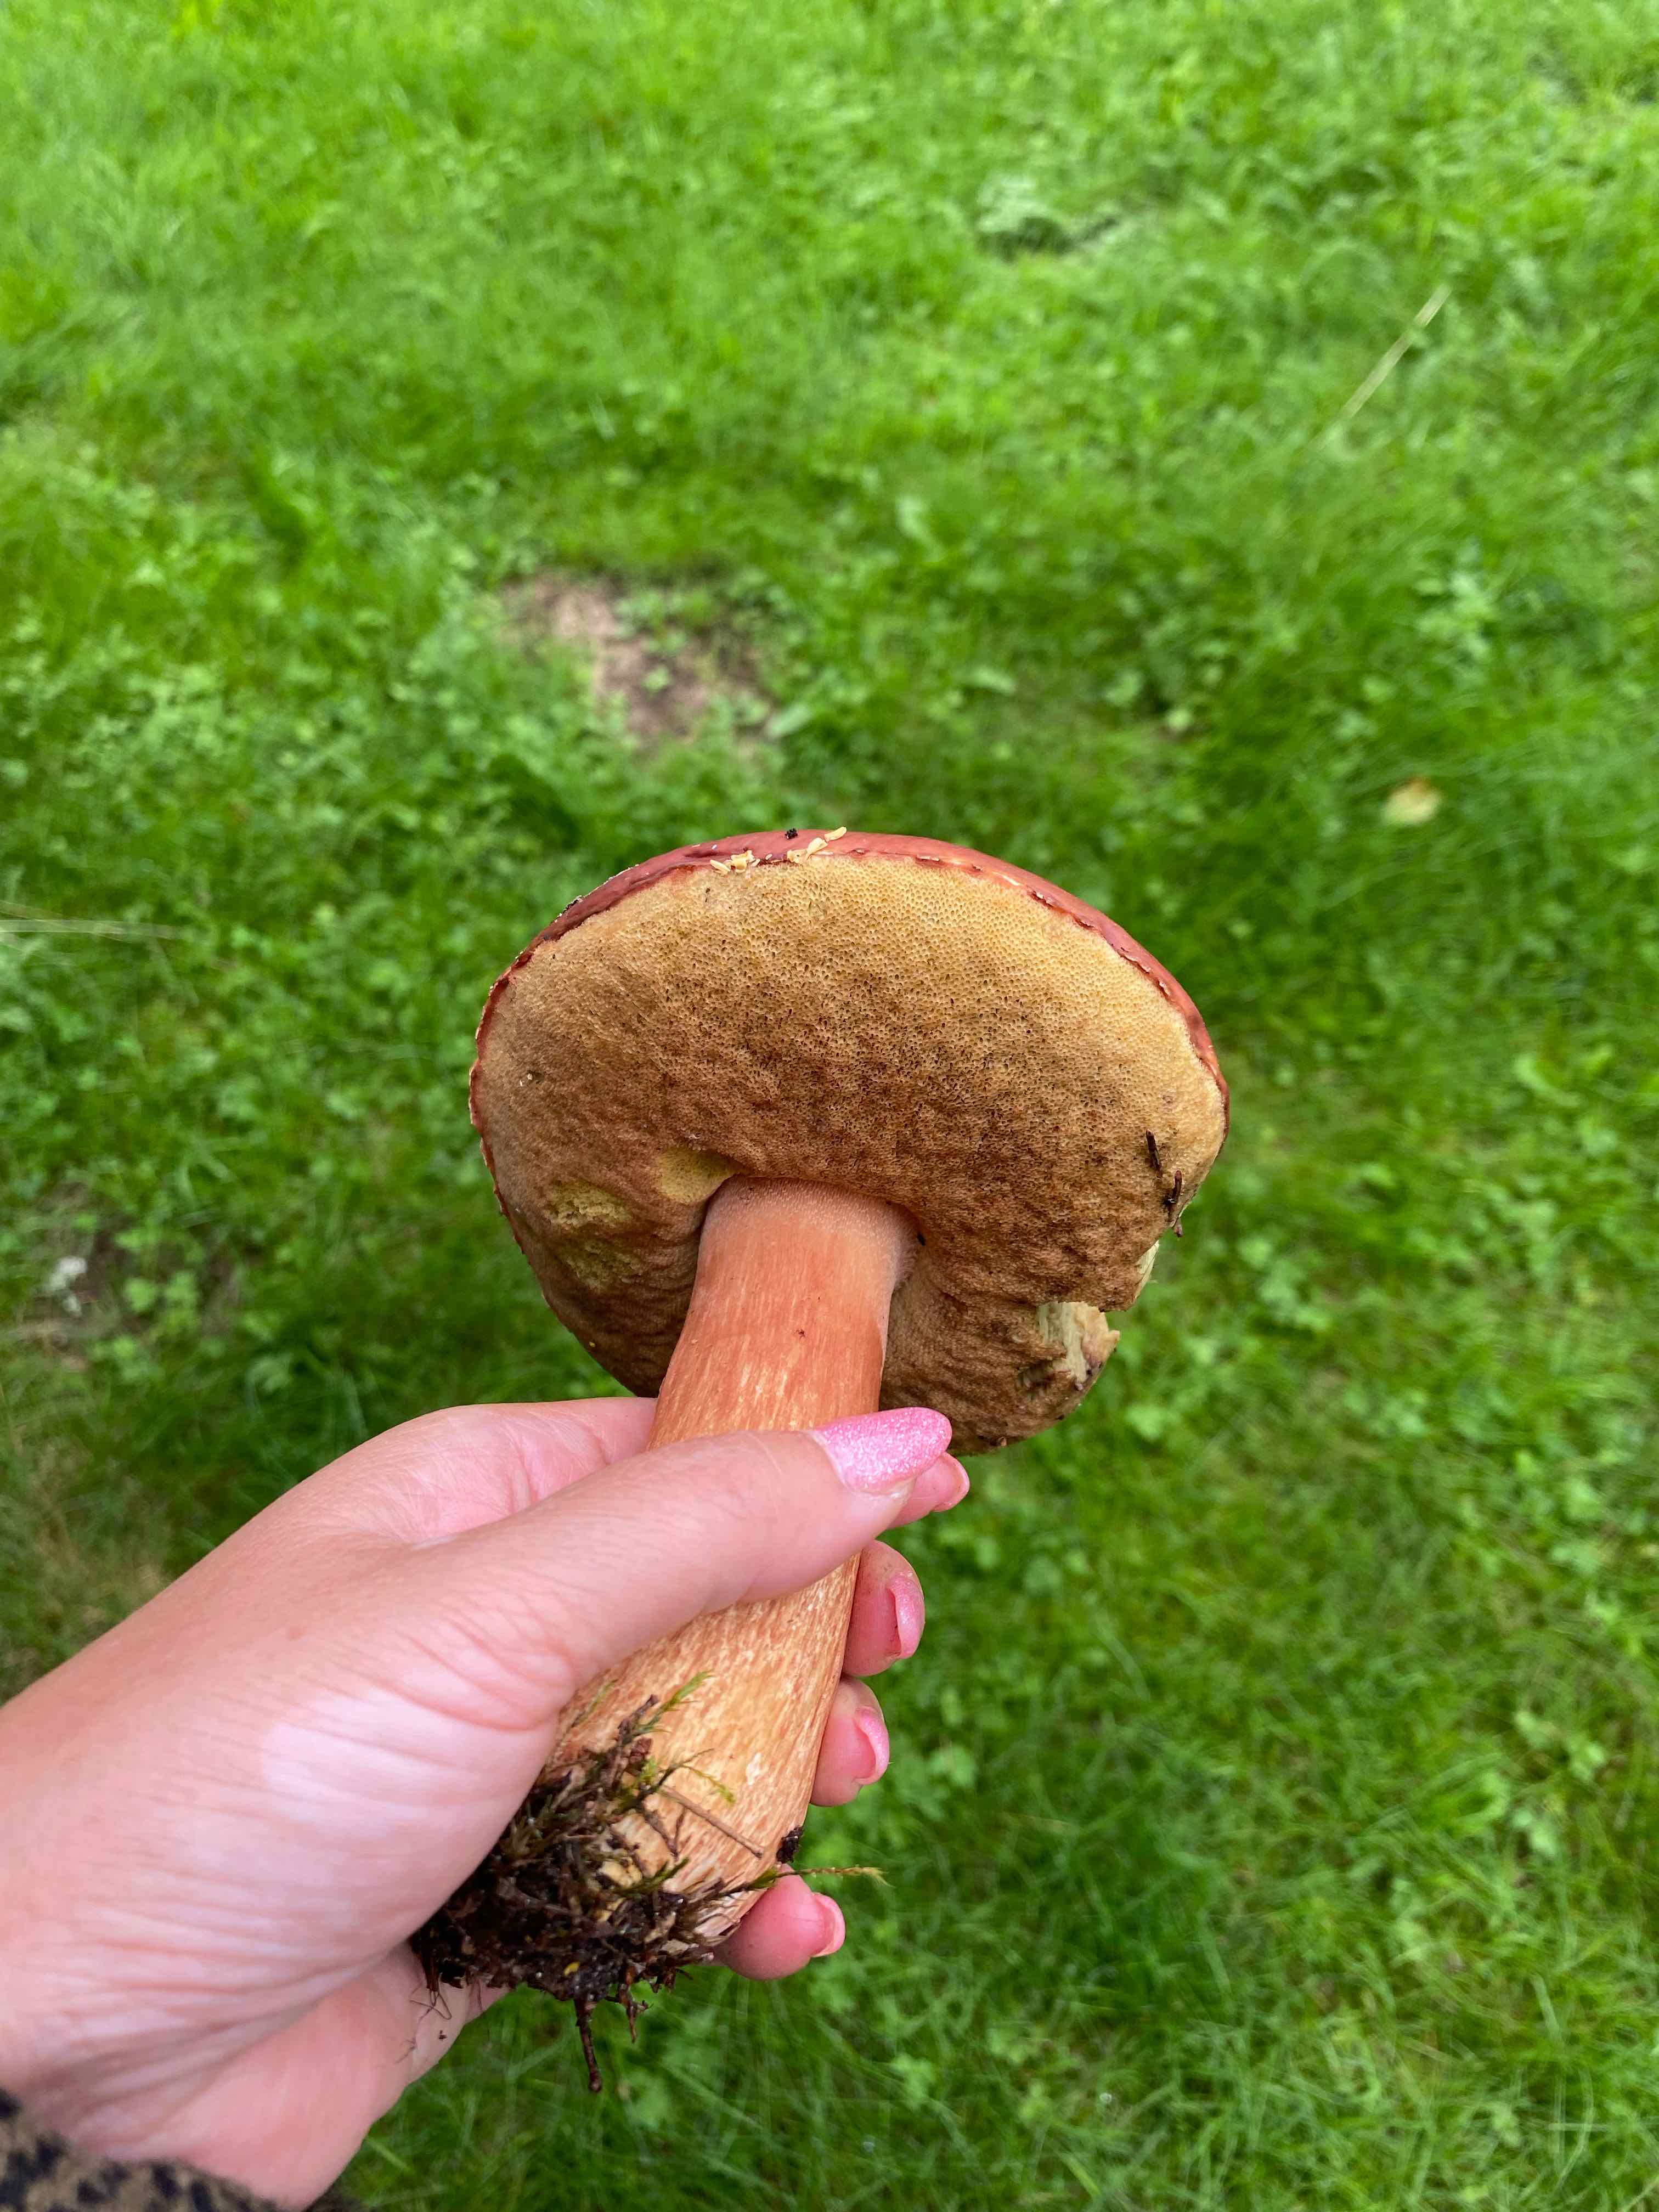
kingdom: Fungi
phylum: Basidiomycota
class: Agaricomycetes
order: Boletales
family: Boletaceae
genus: Boletus
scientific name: Boletus pinophilus
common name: rødbrun rørhat
